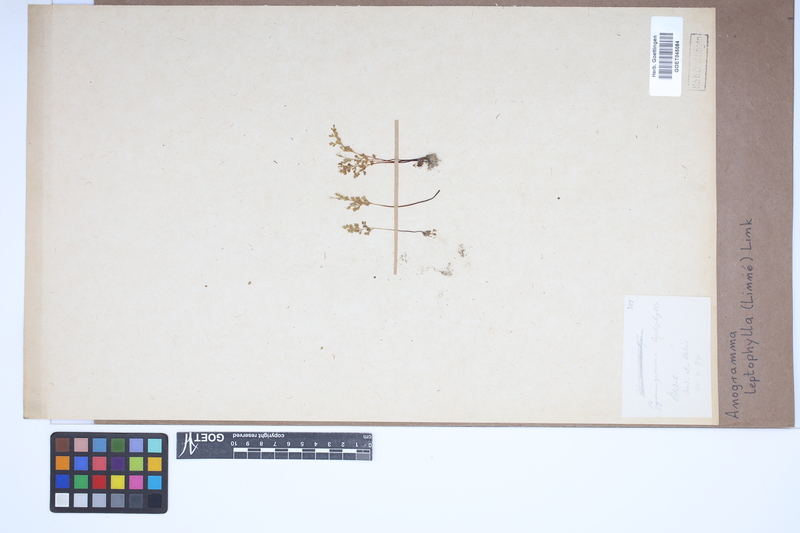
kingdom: Plantae
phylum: Tracheophyta
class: Polypodiopsida
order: Polypodiales
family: Pteridaceae
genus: Anogramma
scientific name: Anogramma leptophylla
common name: Jersey fern
